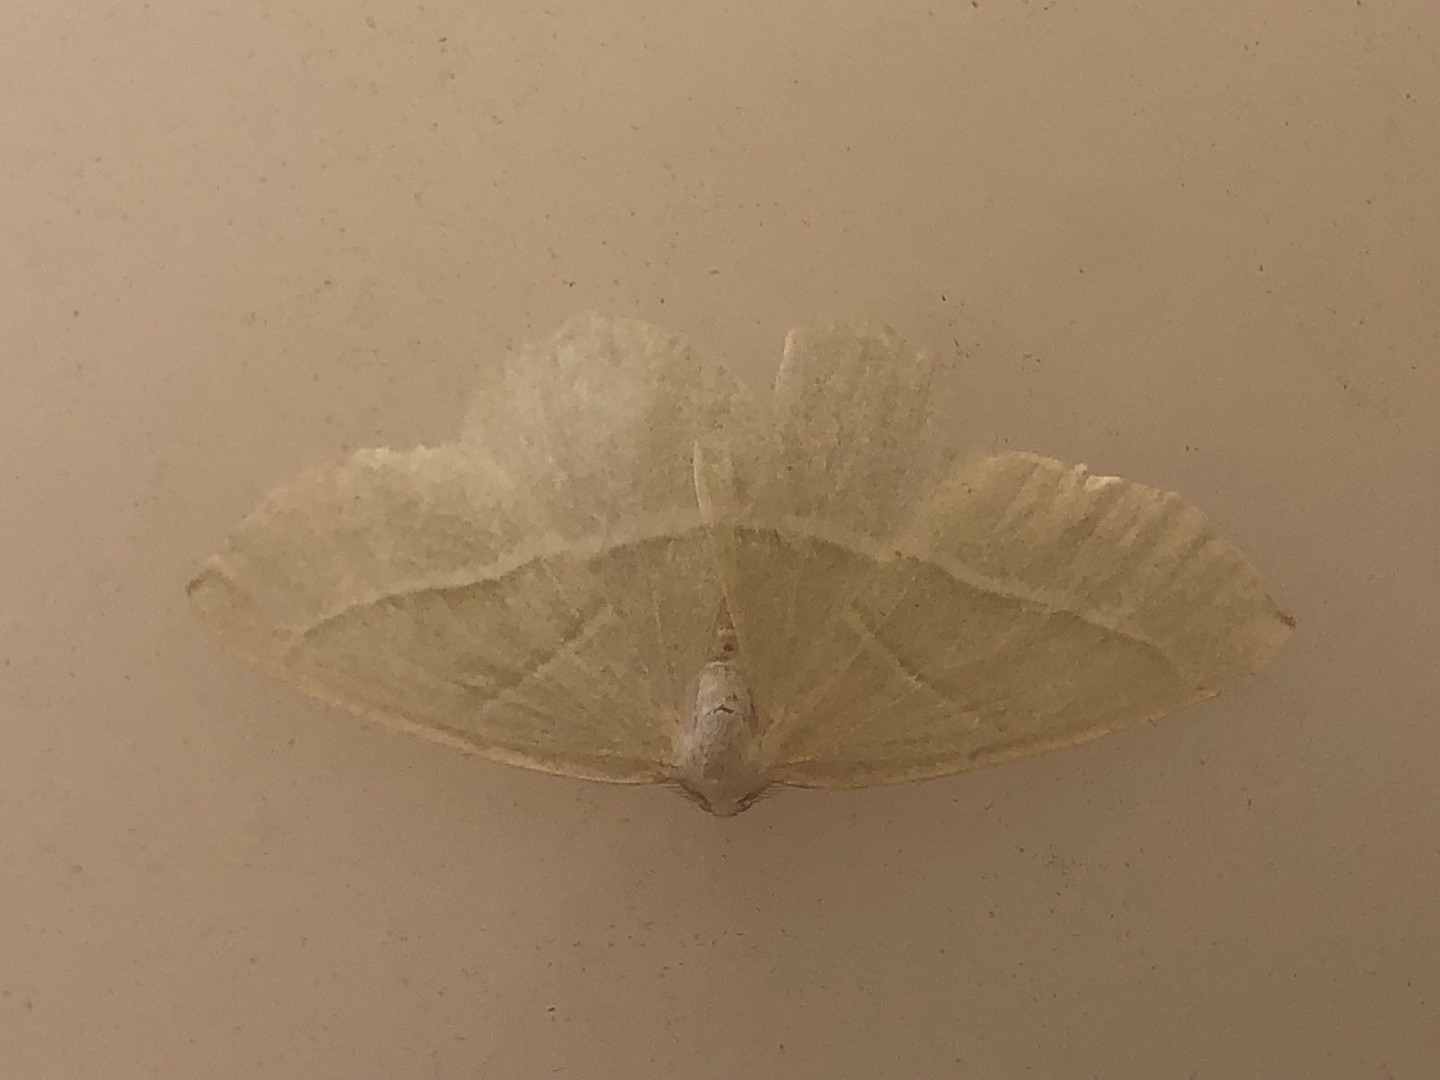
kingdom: Animalia
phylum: Arthropoda
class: Insecta
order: Lepidoptera
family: Geometridae
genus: Campaea
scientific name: Campaea margaritaria
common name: Perlemåler
